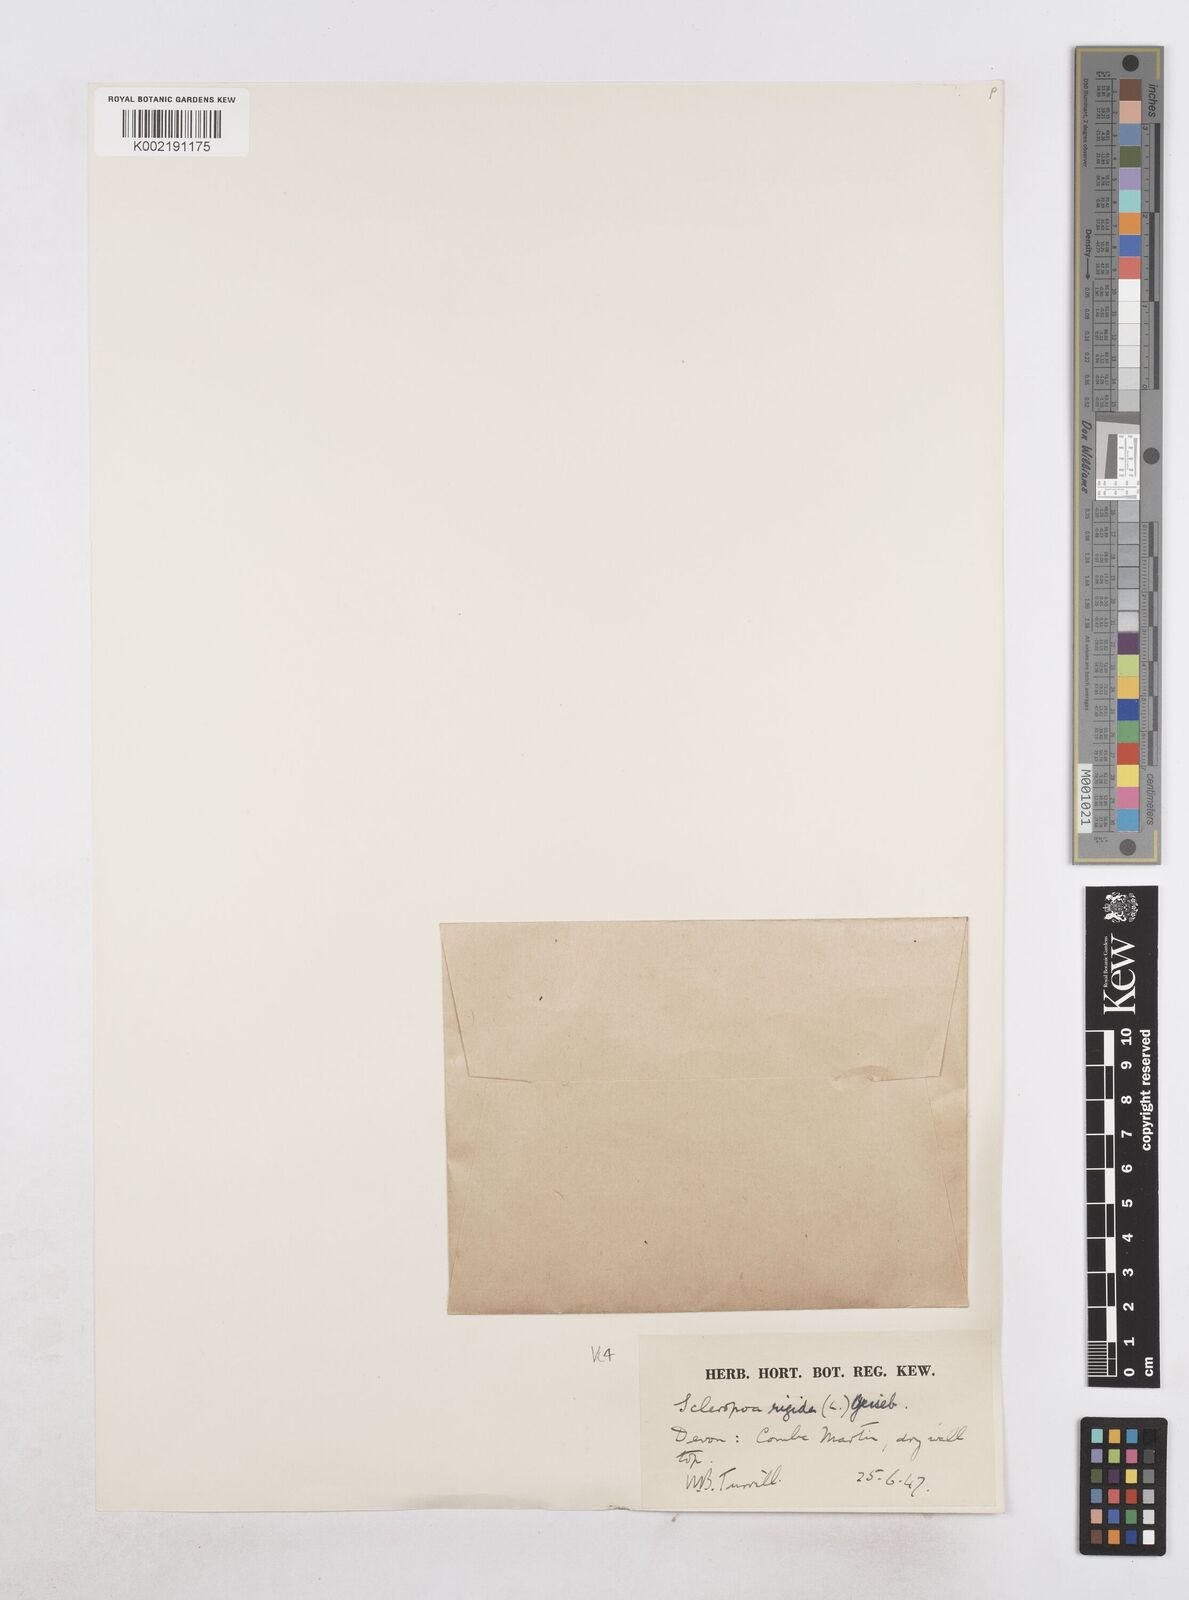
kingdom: Plantae
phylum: Tracheophyta
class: Liliopsida
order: Poales
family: Poaceae
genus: Catapodium
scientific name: Catapodium rigidum
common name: Fern-grass
